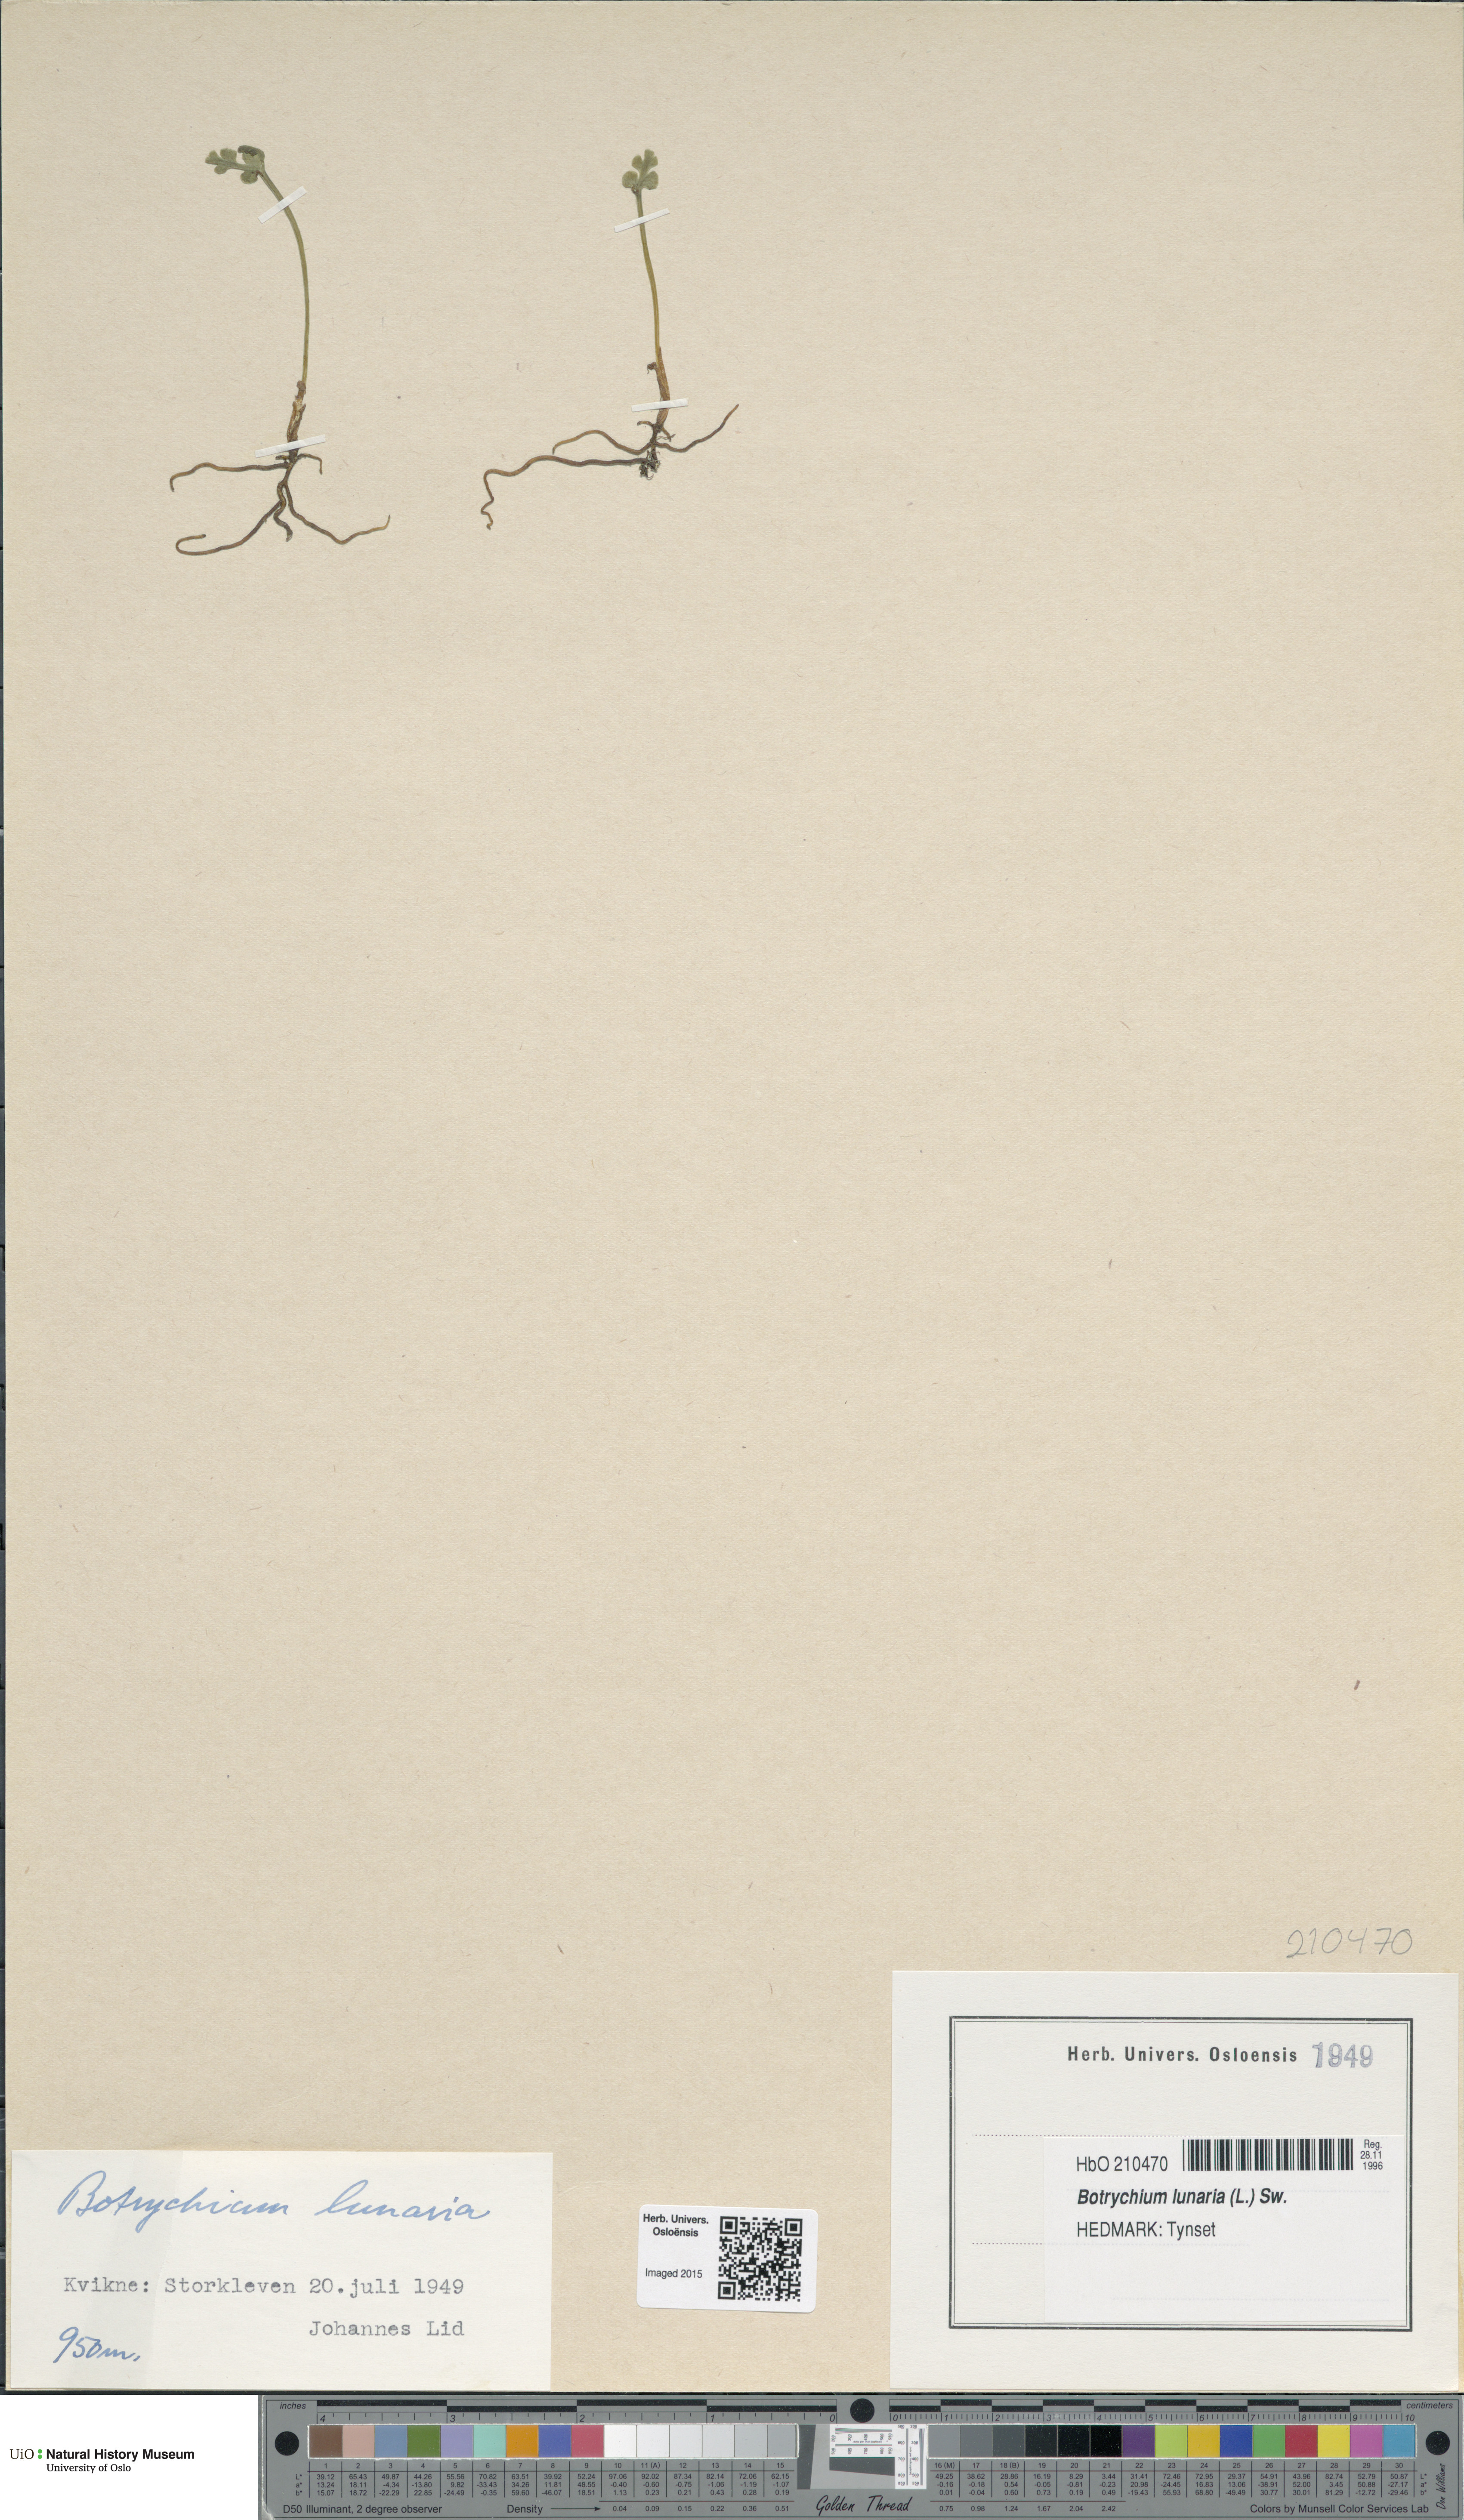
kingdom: Plantae
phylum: Tracheophyta
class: Polypodiopsida
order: Ophioglossales
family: Ophioglossaceae
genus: Botrychium
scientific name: Botrychium lunaria
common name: Moonwort
